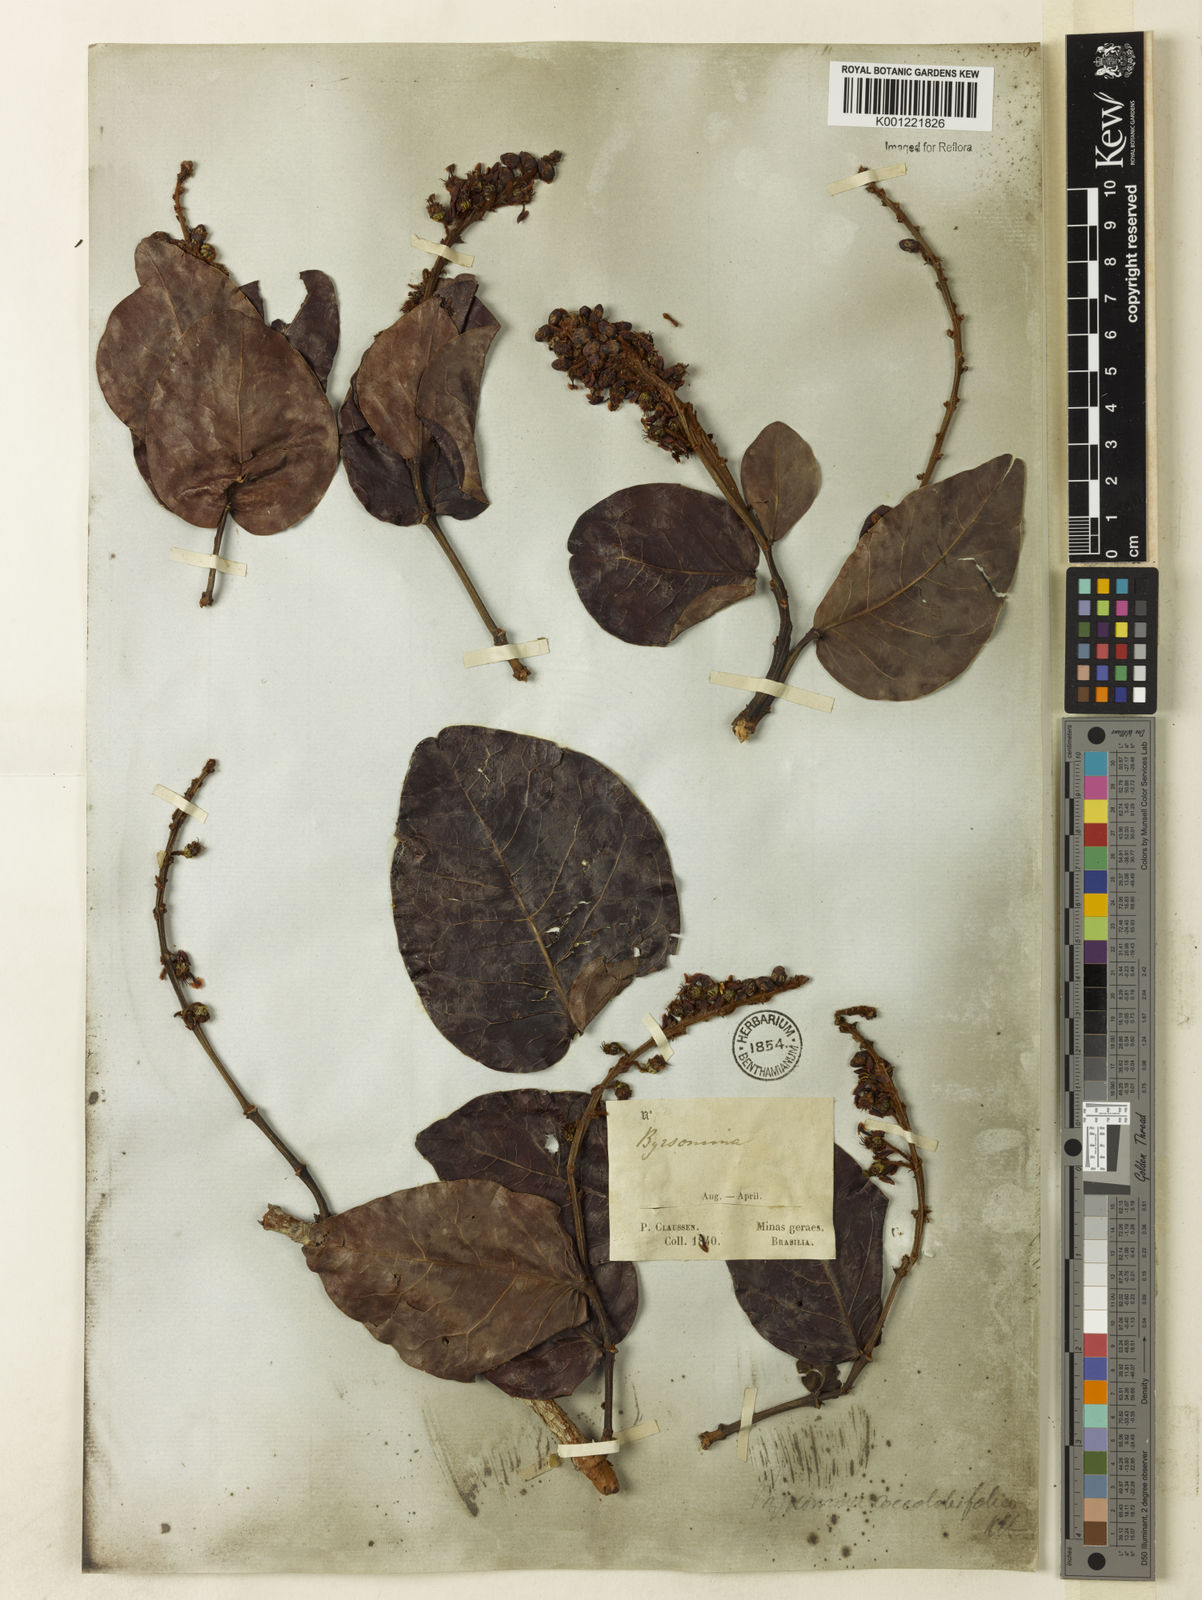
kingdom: Plantae
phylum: Tracheophyta
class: Magnoliopsida
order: Malpighiales
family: Malpighiaceae
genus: Byrsonima
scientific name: Byrsonima coccolobifolia
